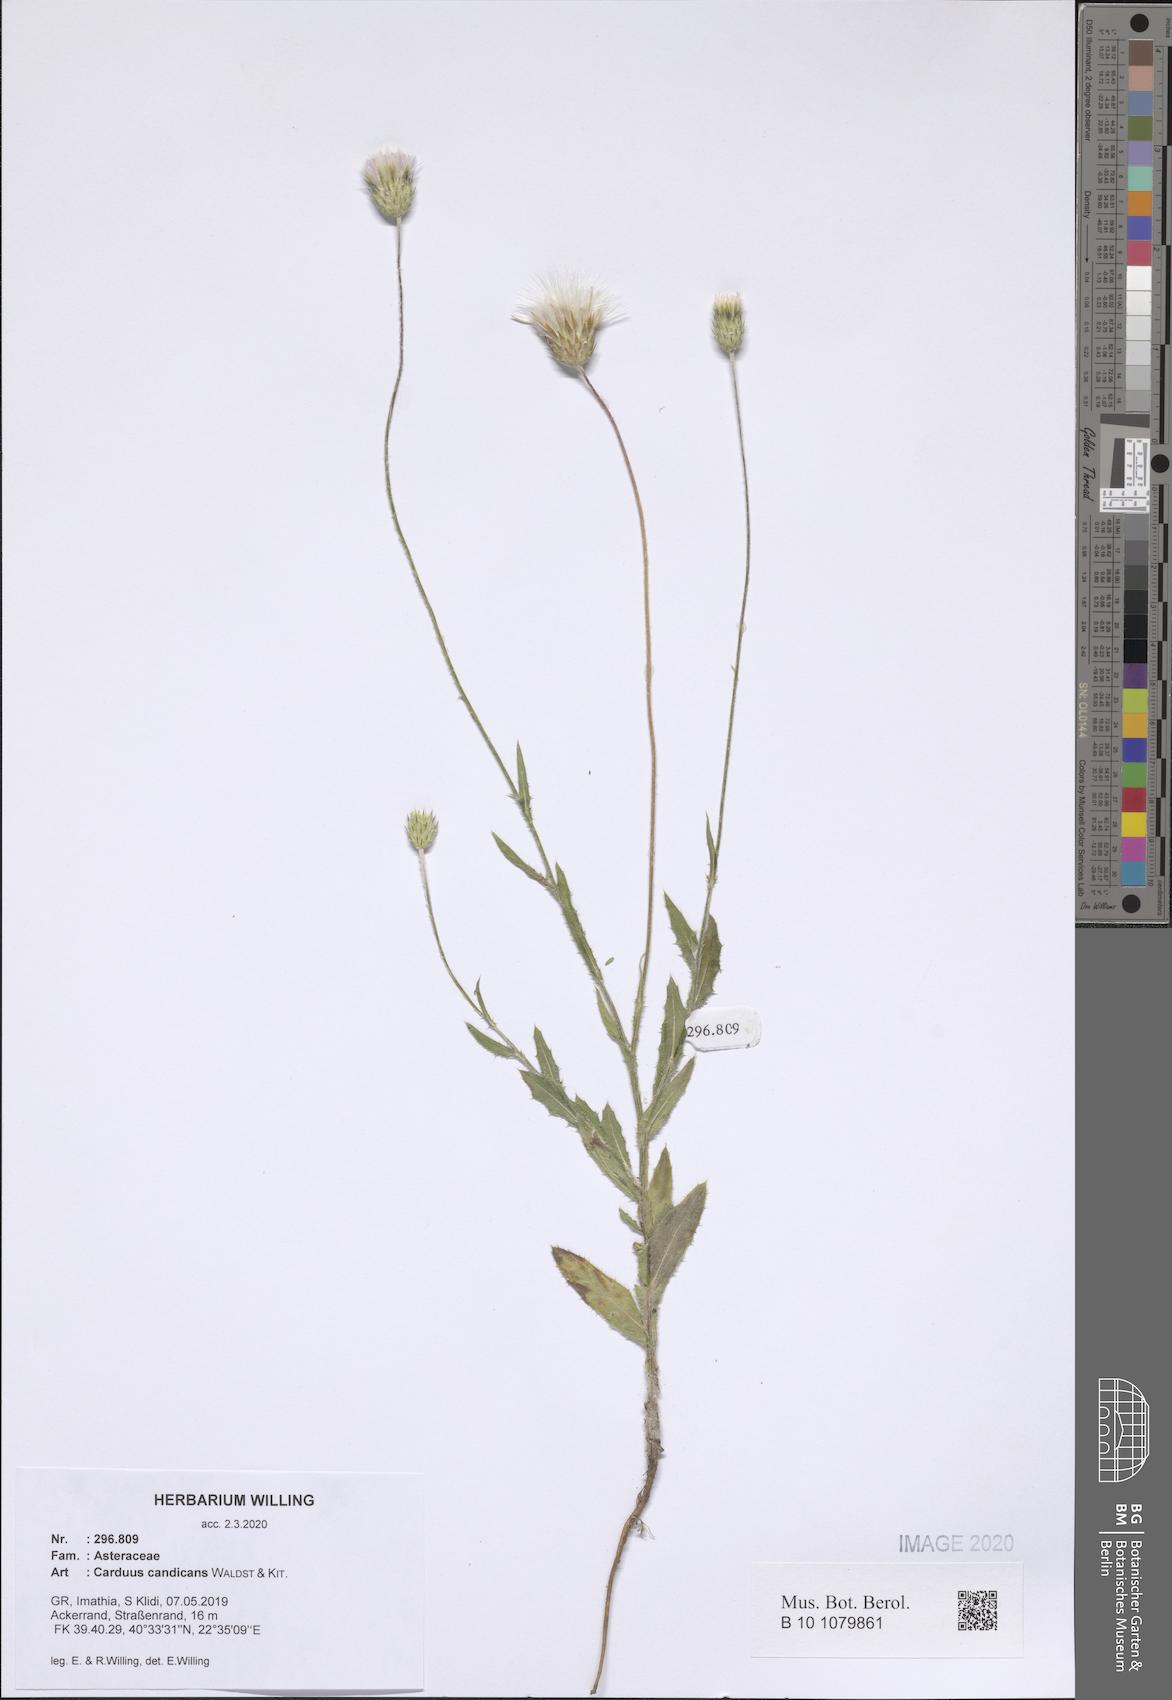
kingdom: Plantae
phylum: Tracheophyta
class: Magnoliopsida
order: Asterales
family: Asteraceae
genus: Carduus
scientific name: Carduus candicans
